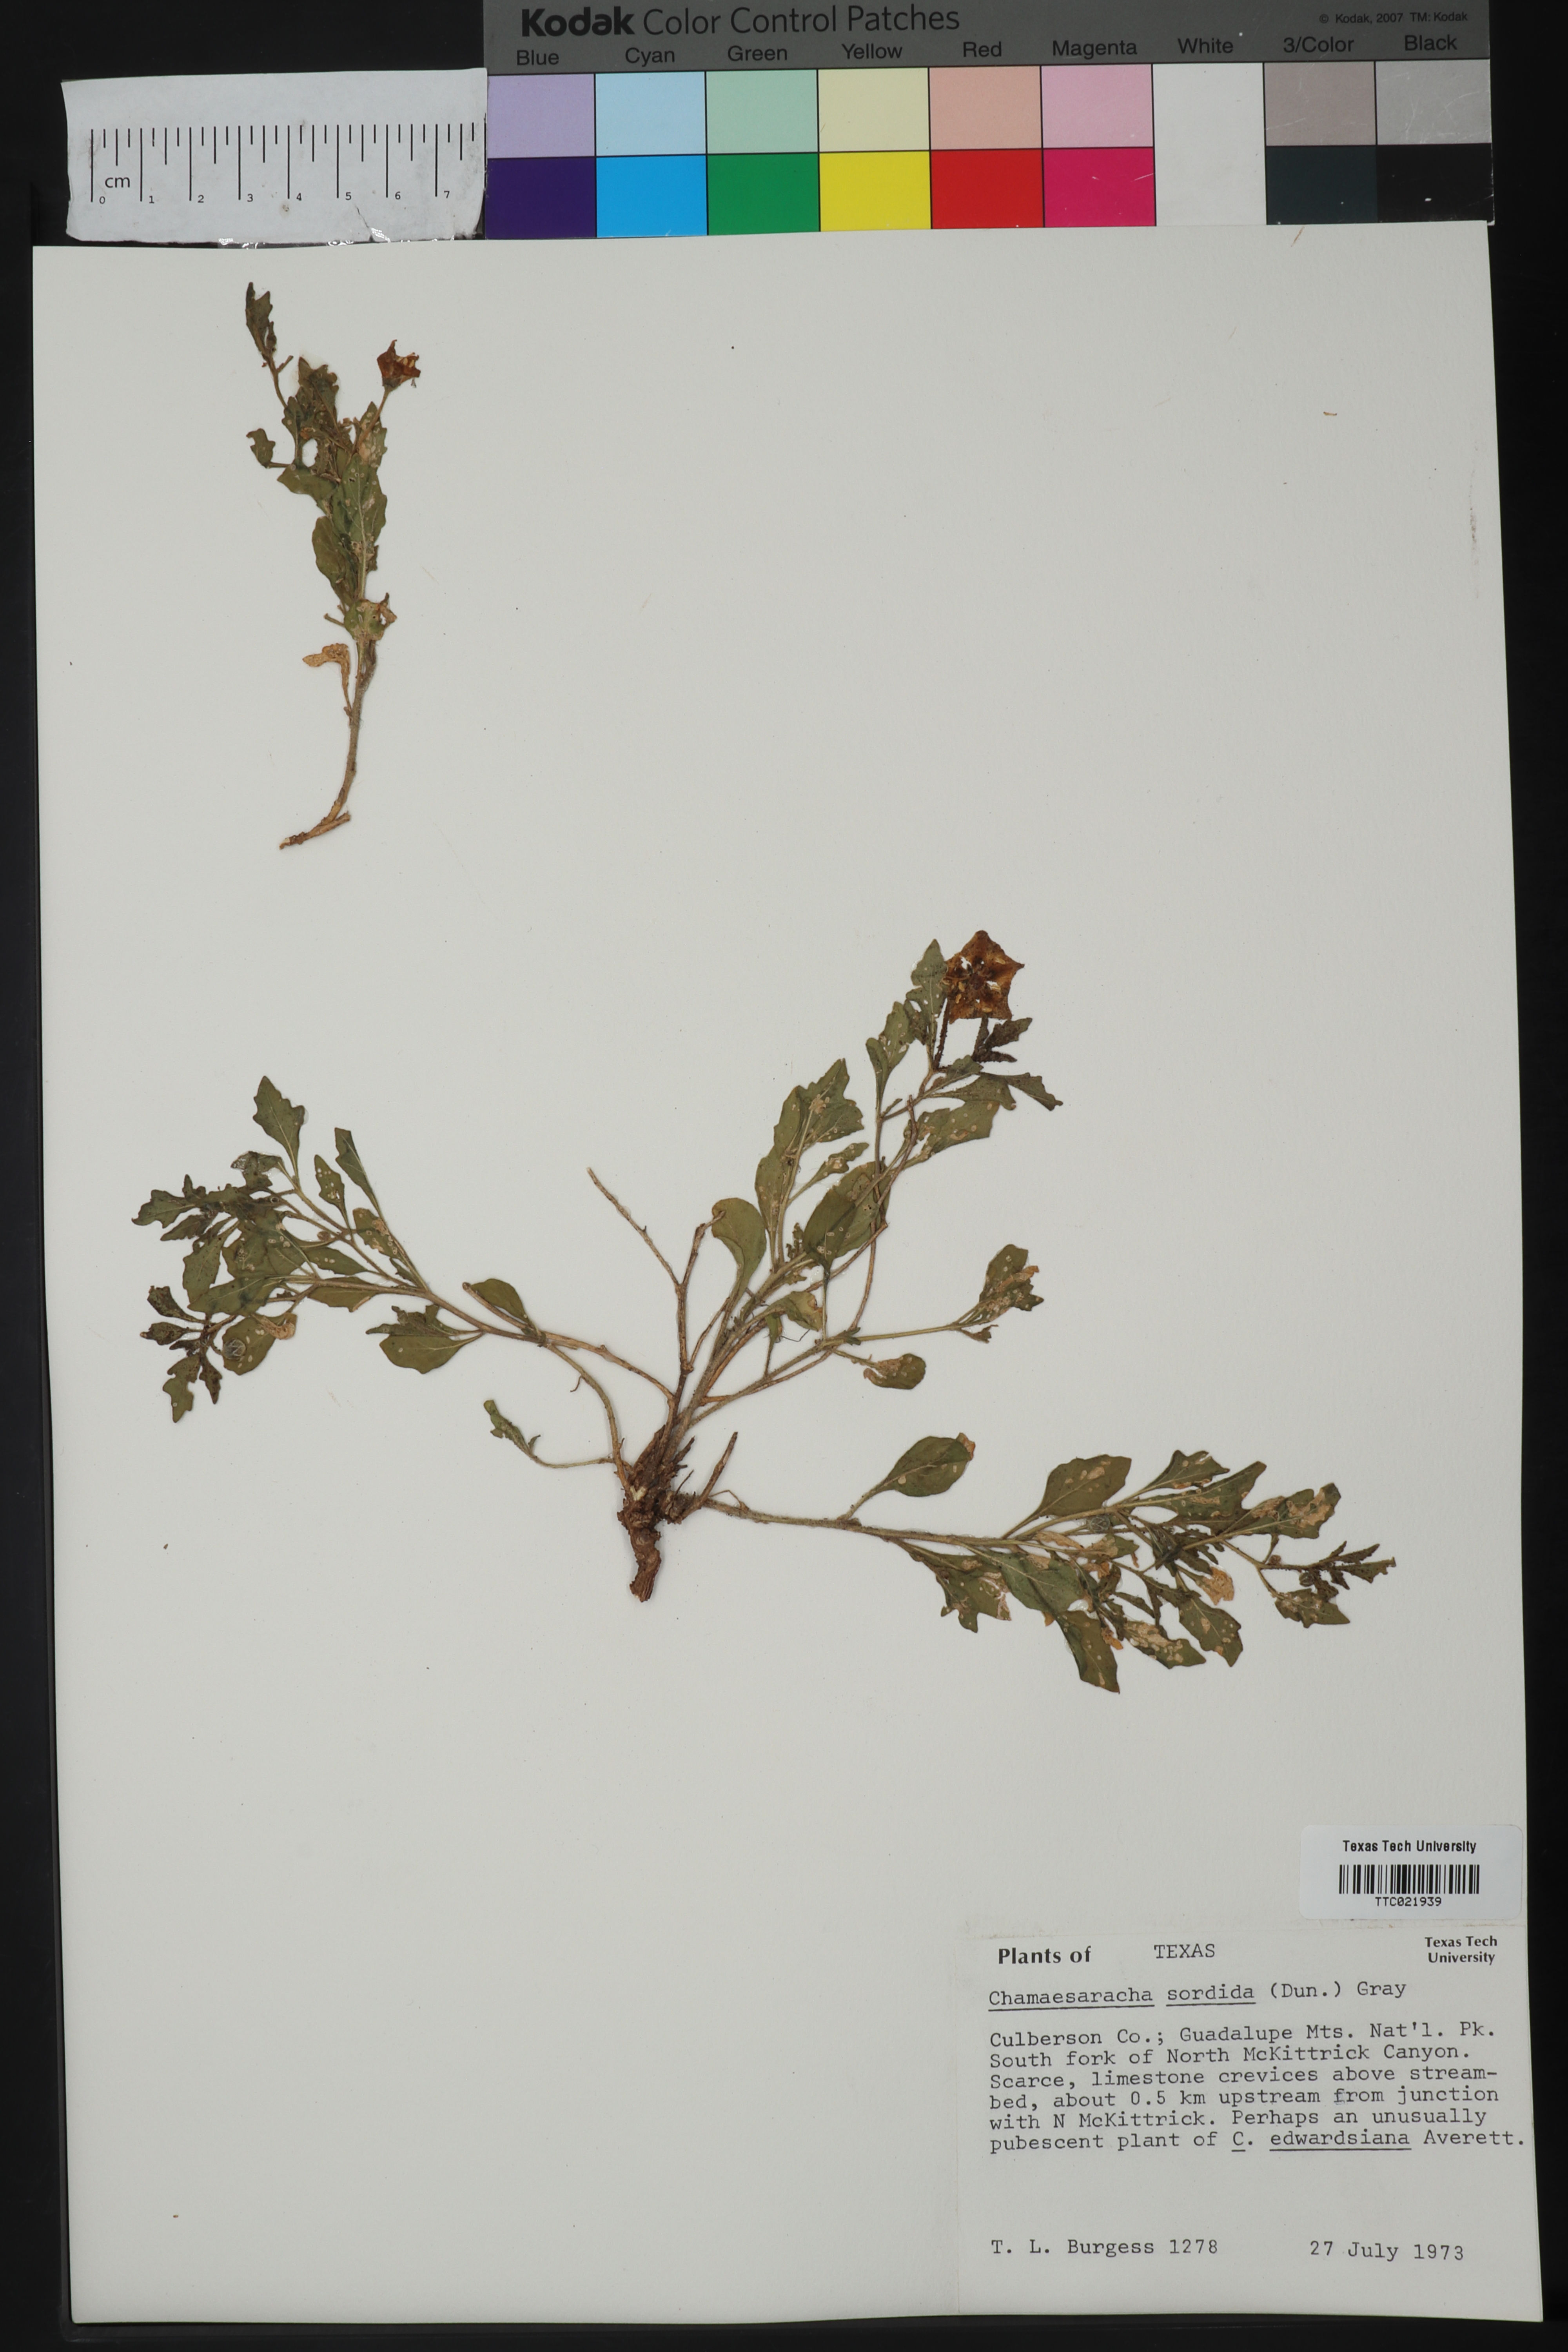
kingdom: Plantae
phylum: Tracheophyta
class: Magnoliopsida
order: Solanales
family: Solanaceae
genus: Chamaesaracha
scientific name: Chamaesaracha sordida
